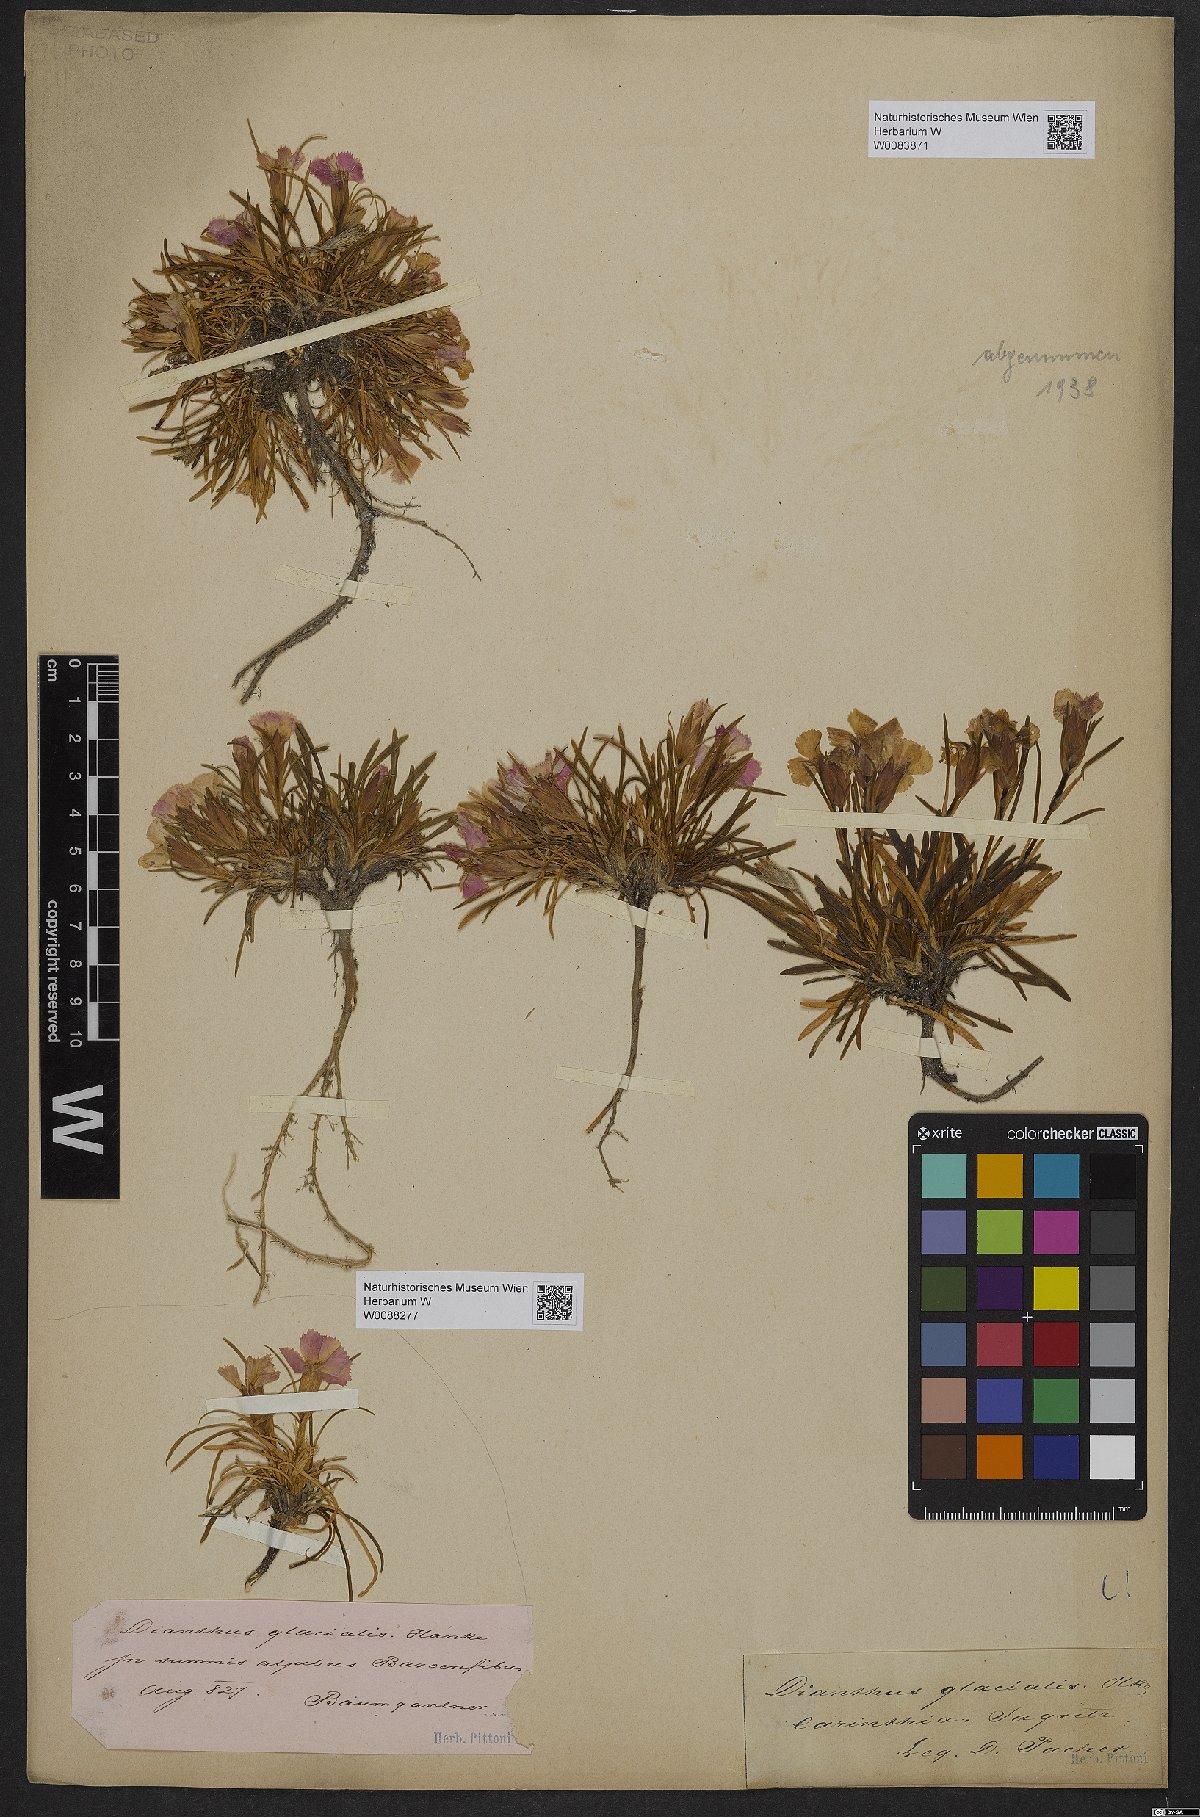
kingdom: Plantae
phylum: Tracheophyta
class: Magnoliopsida
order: Caryophyllales
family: Caryophyllaceae
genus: Dianthus
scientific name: Dianthus glacialis
